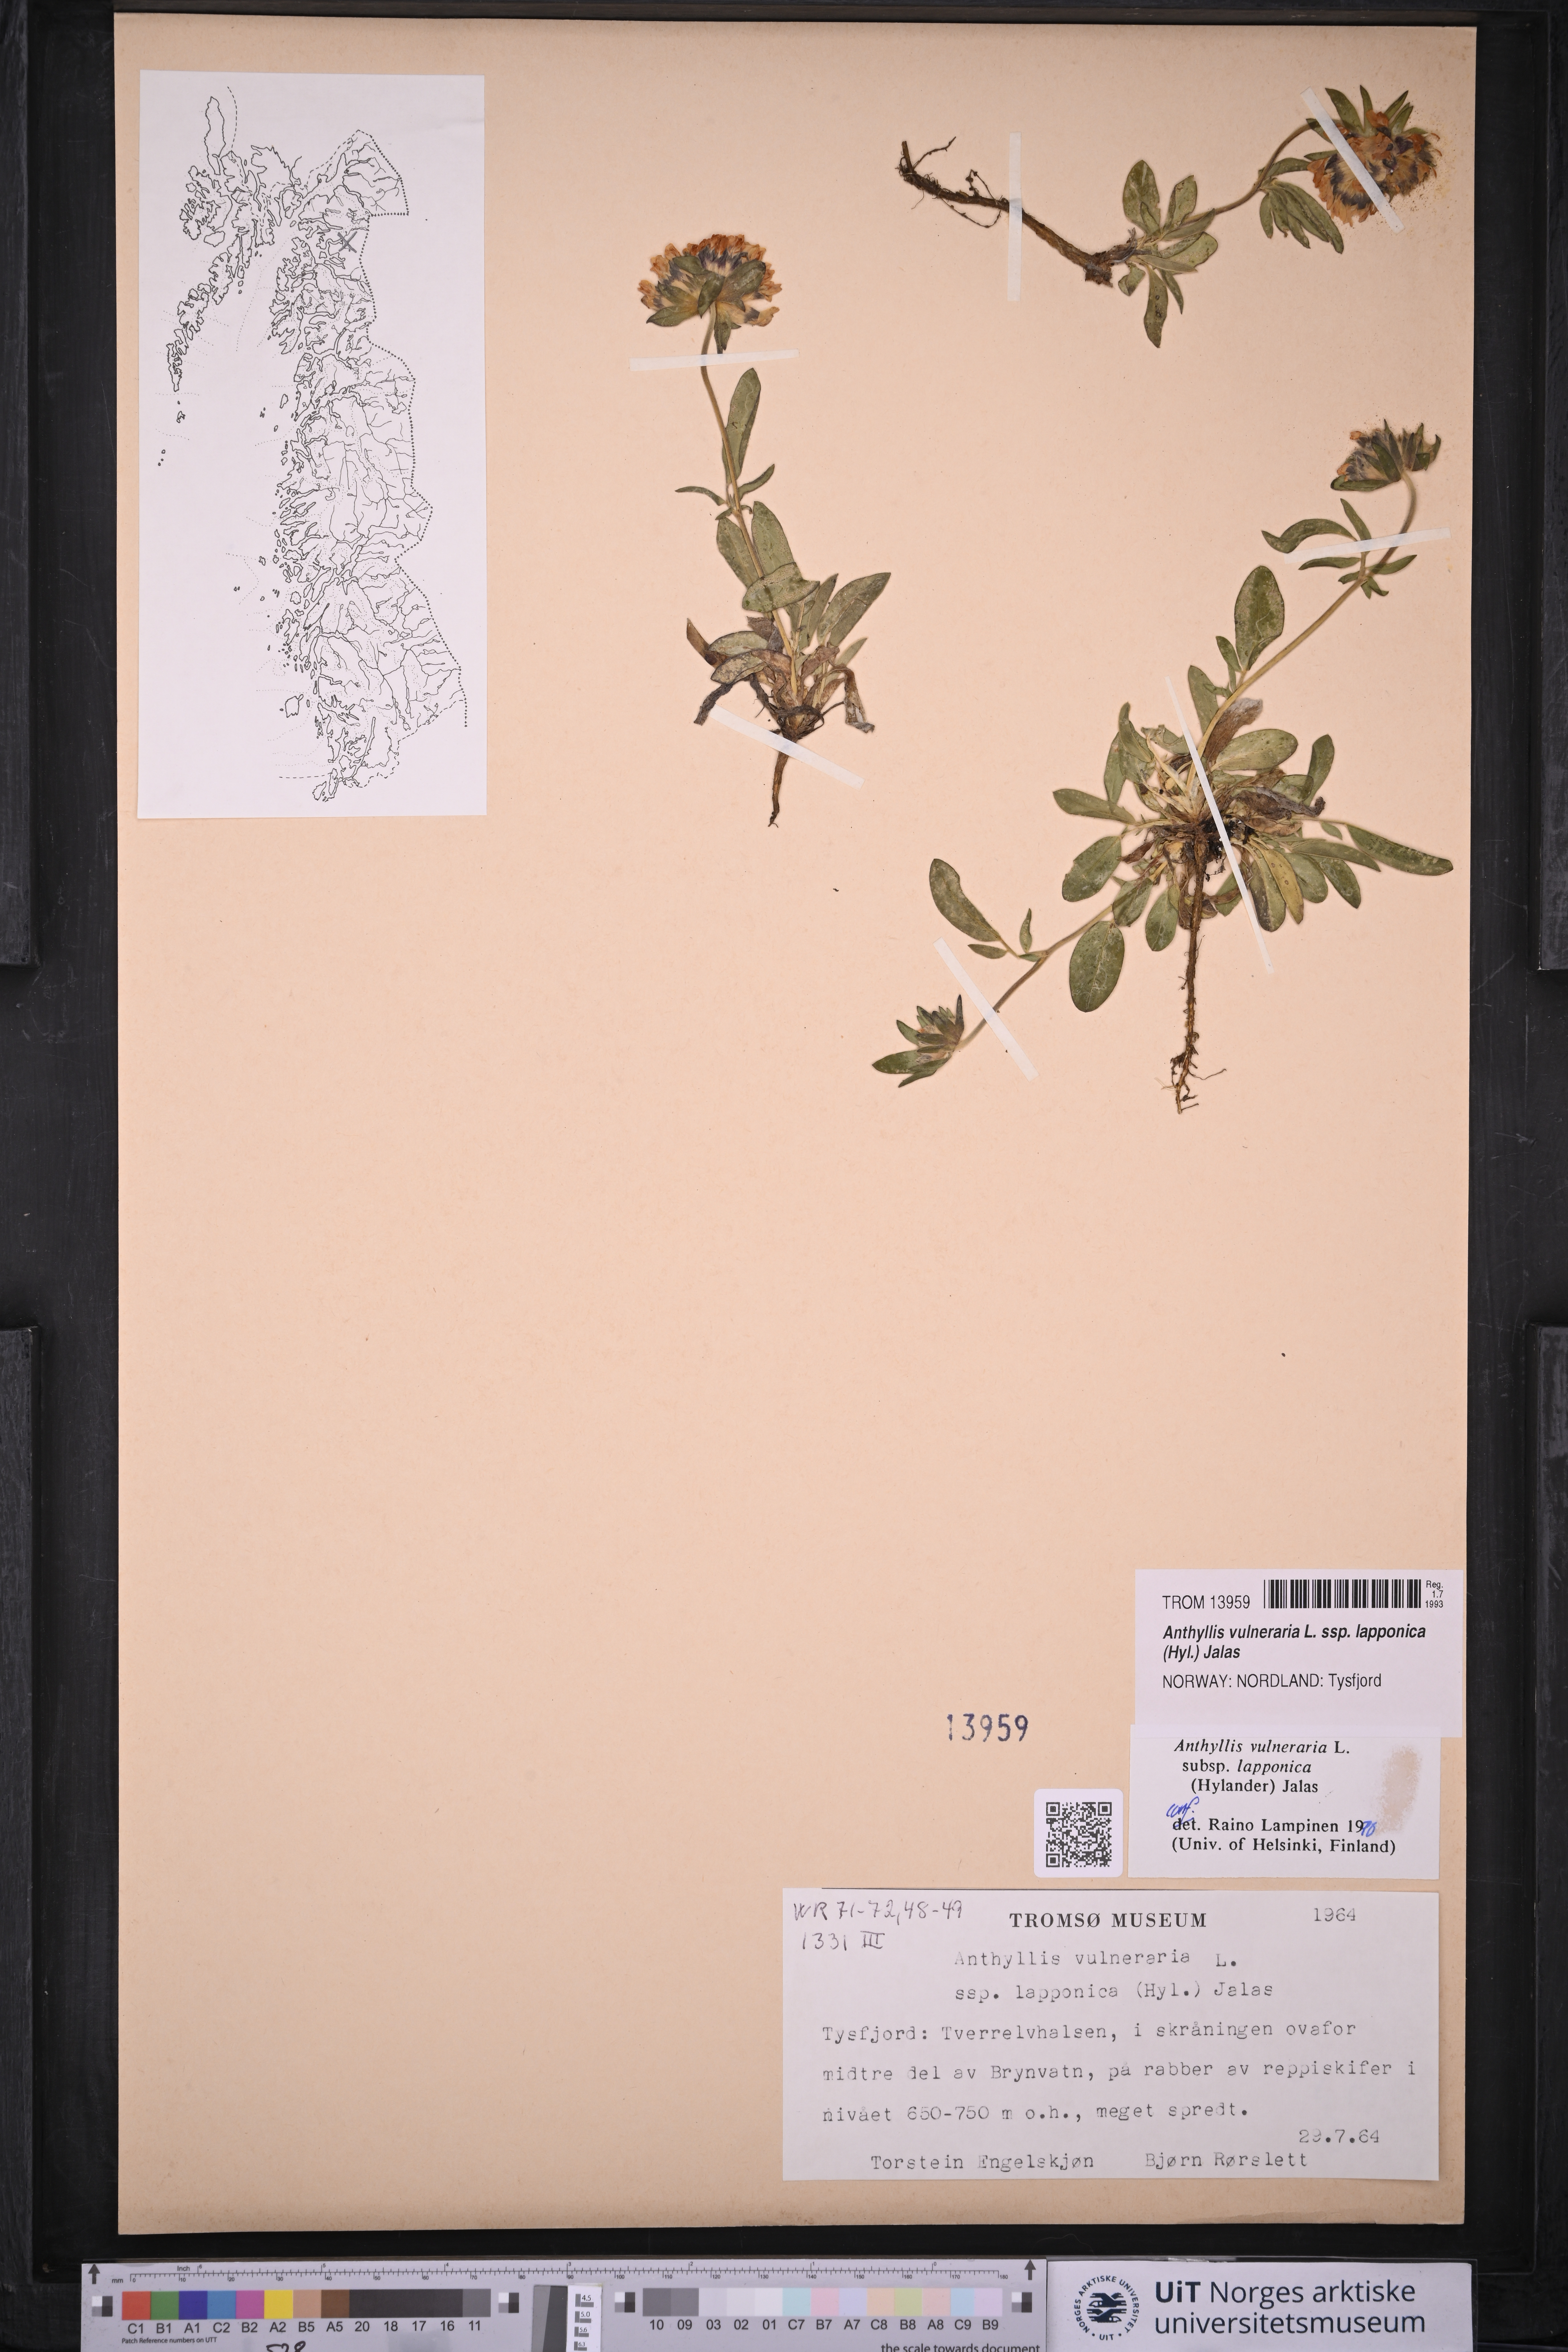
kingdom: Plantae
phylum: Tracheophyta
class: Magnoliopsida
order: Fabales
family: Fabaceae
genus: Anthyllis
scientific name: Anthyllis vulneraria
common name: Kidney vetch
